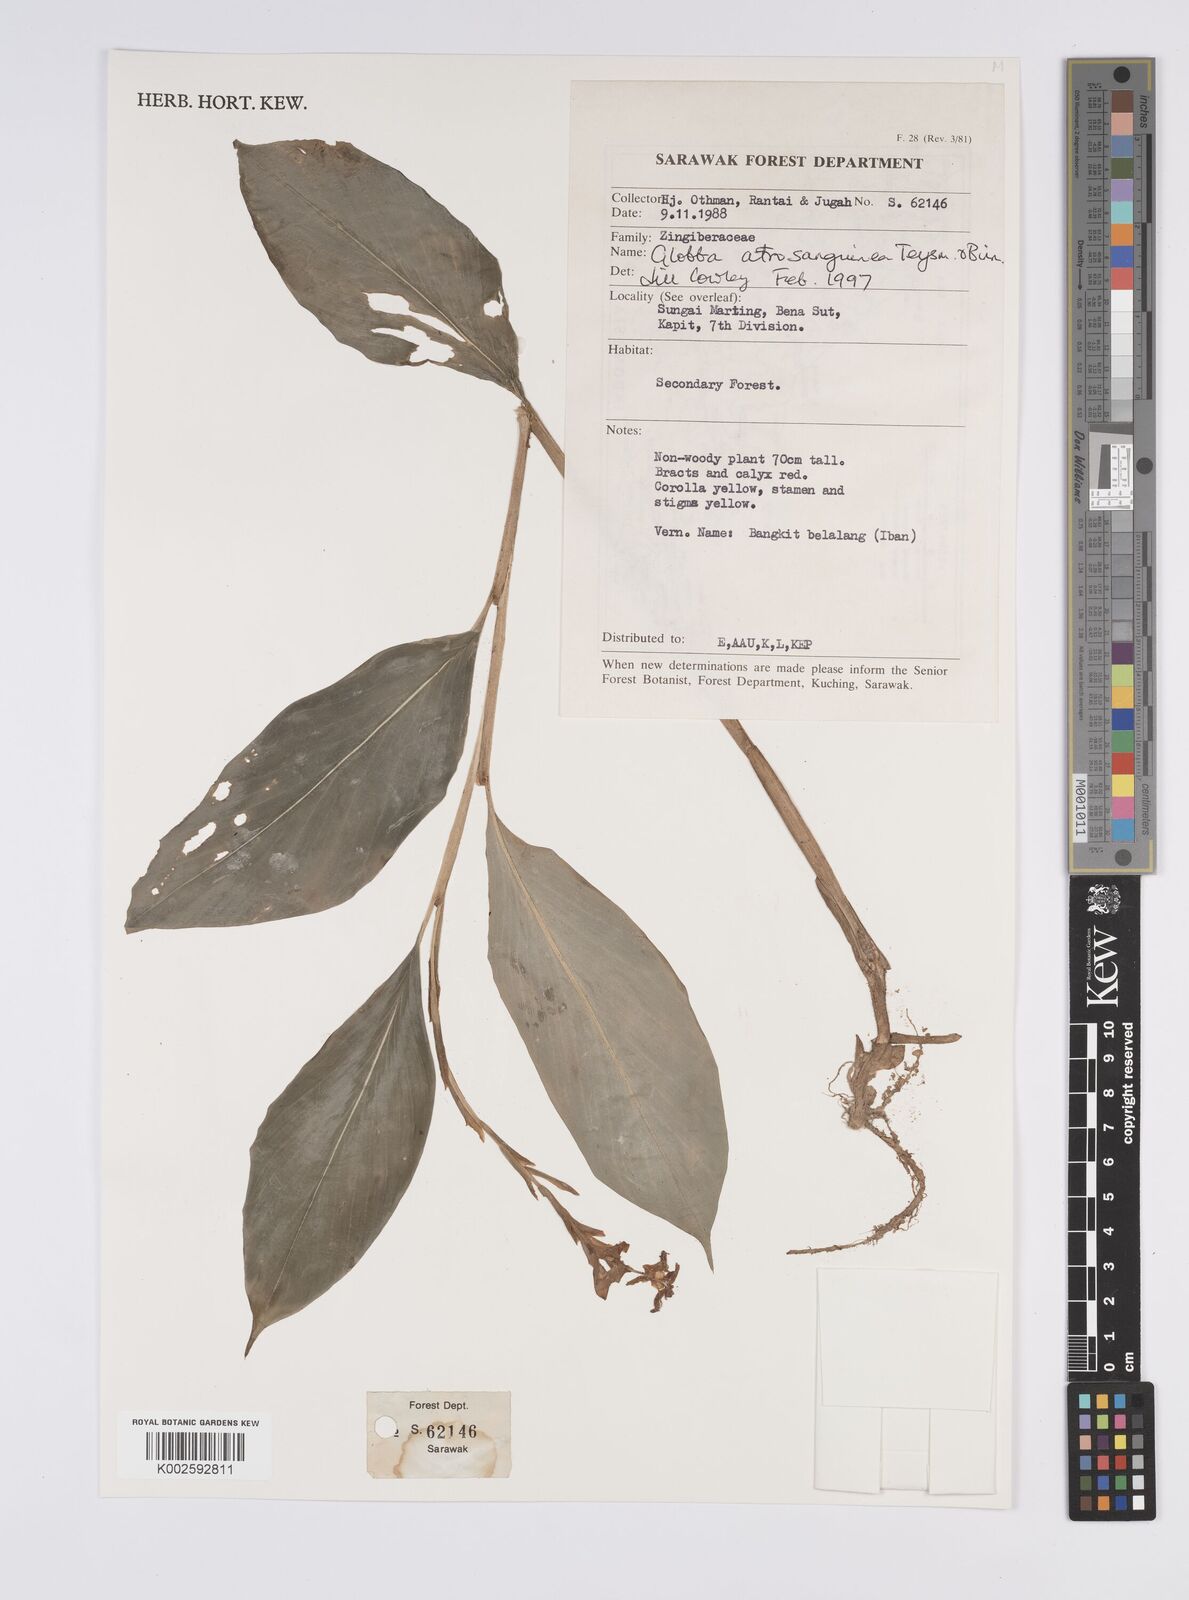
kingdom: Plantae
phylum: Tracheophyta
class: Liliopsida
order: Zingiberales
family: Zingiberaceae
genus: Globba
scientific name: Globba atrosanguinea
